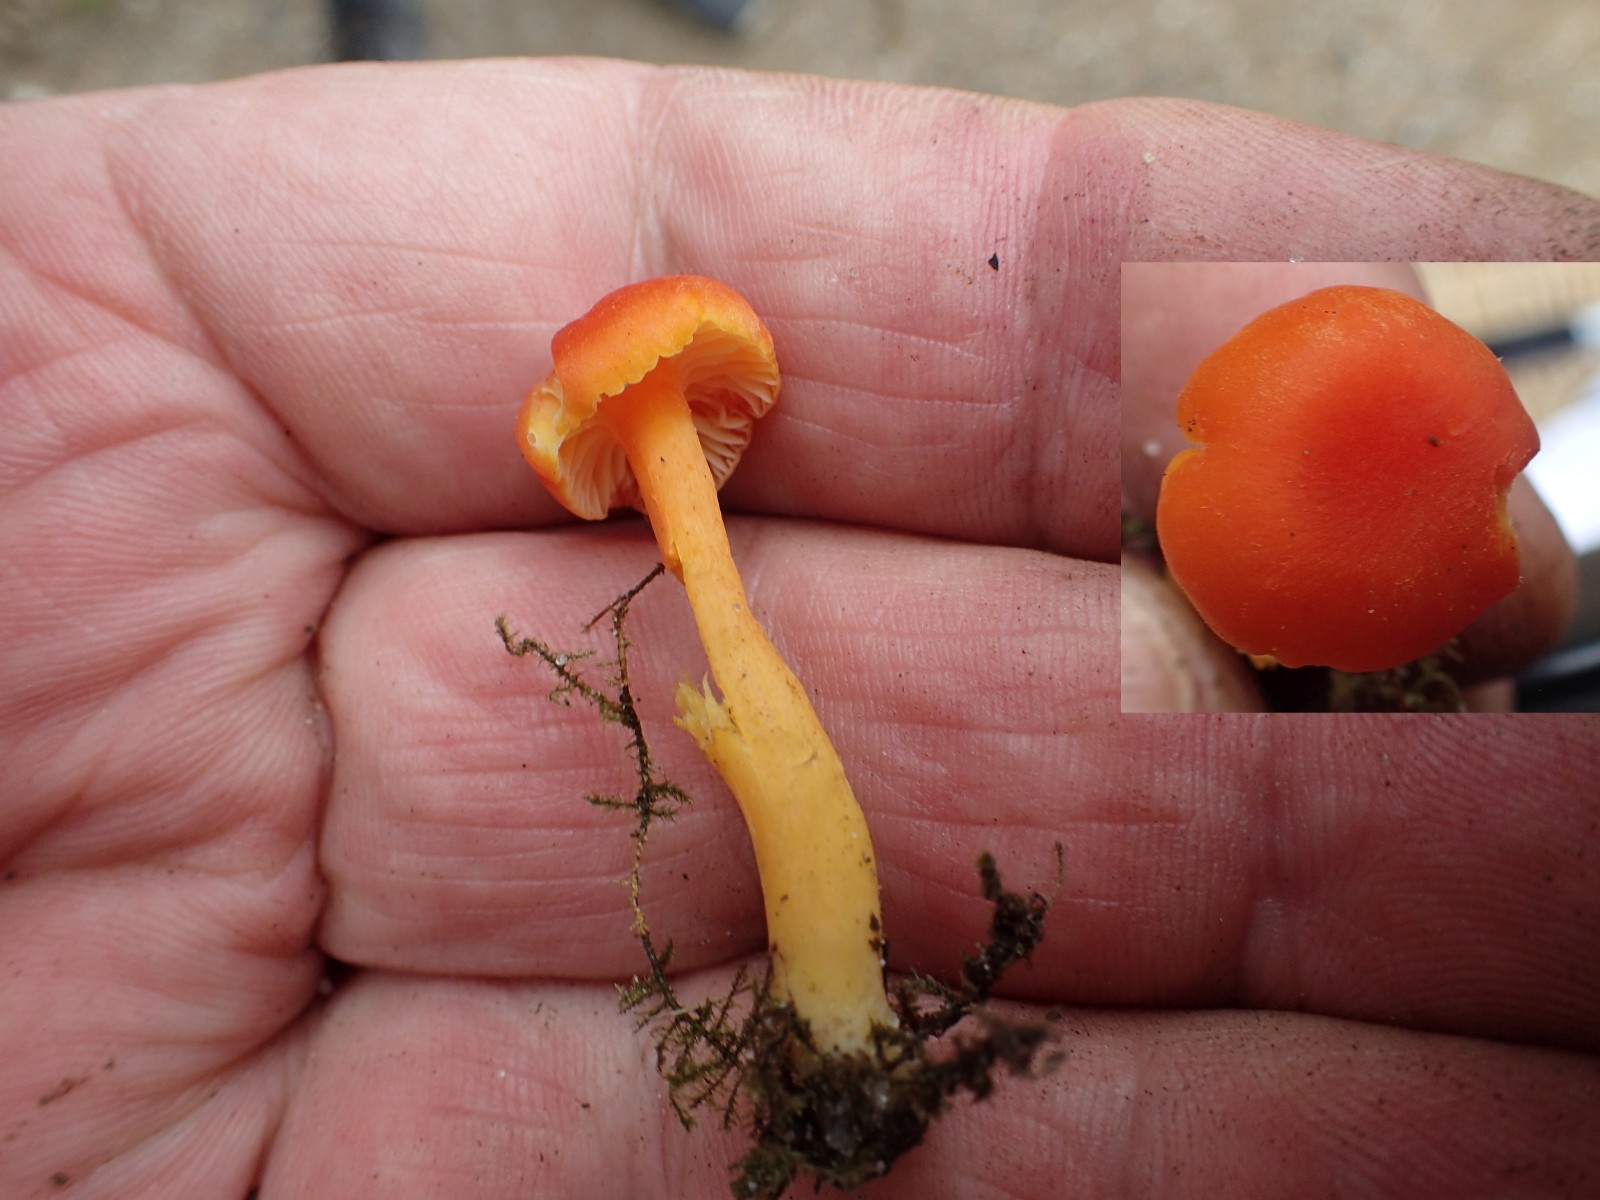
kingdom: Fungi
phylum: Basidiomycota
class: Agaricomycetes
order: Agaricales
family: Hygrophoraceae
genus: Hygrocybe
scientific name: Hygrocybe miniata
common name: mønje-vokshat
